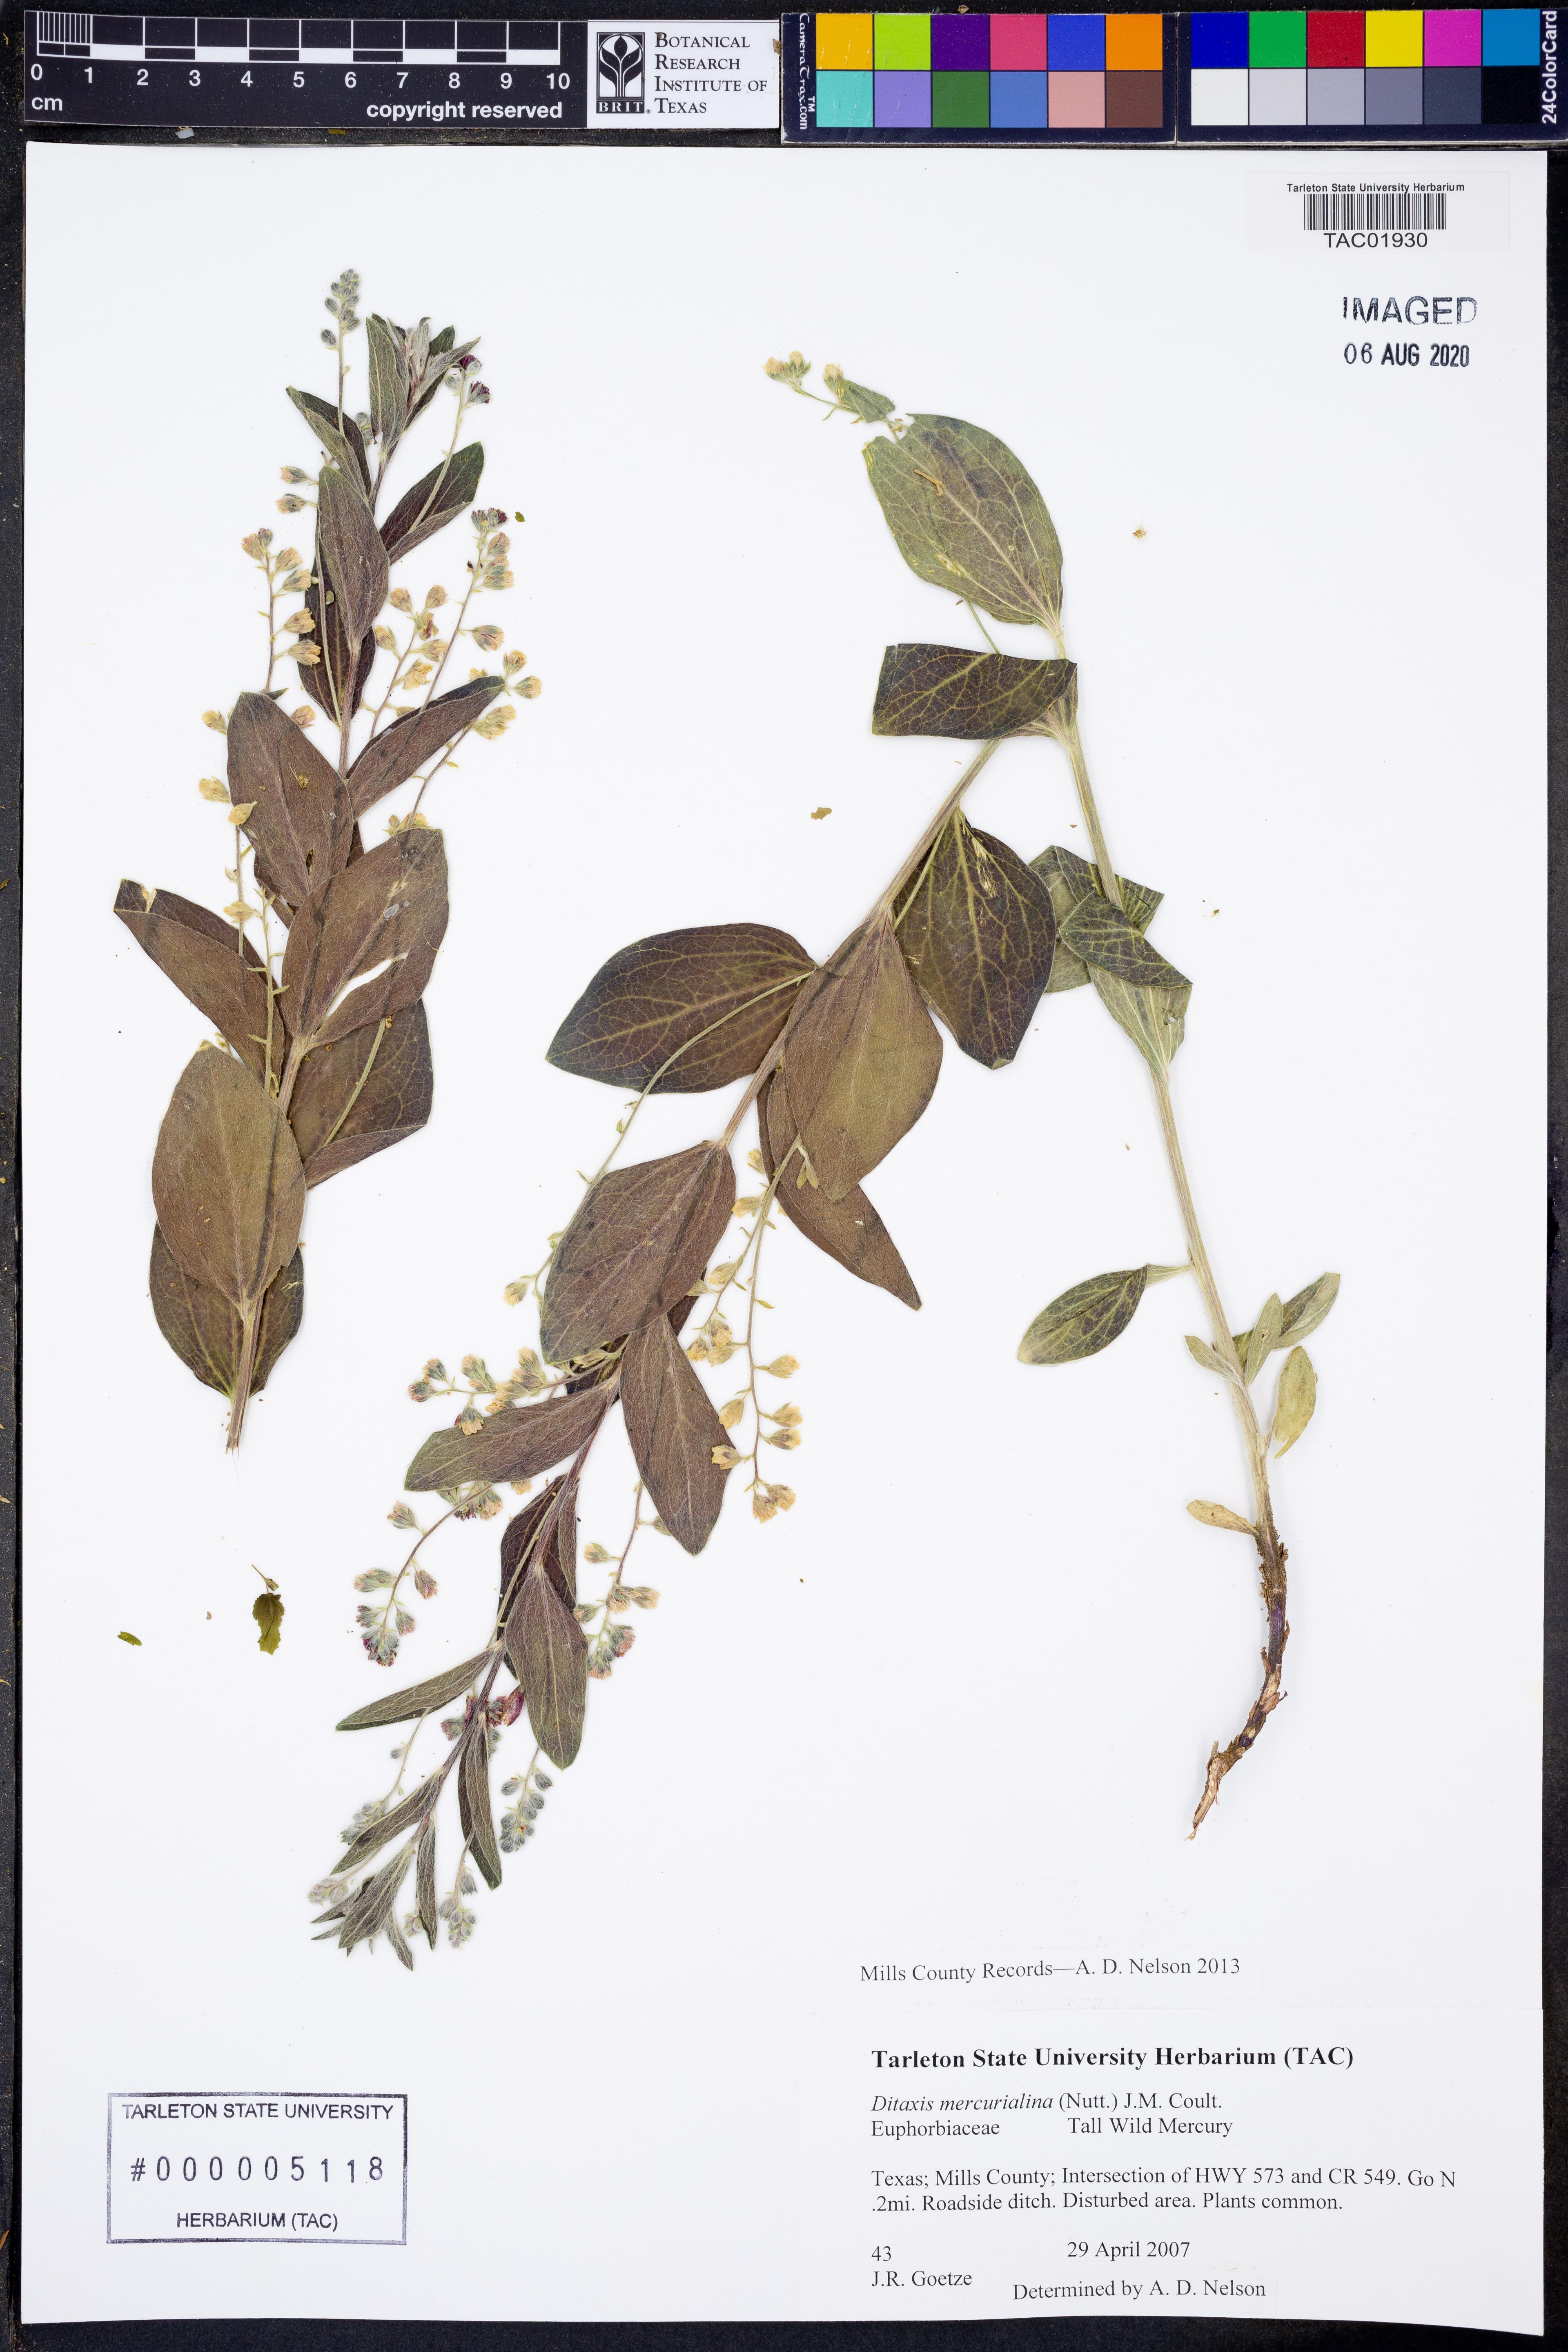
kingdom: Plantae
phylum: Tracheophyta
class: Magnoliopsida
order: Malpighiales
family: Euphorbiaceae
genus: Ditaxis
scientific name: Ditaxis mercurialina
